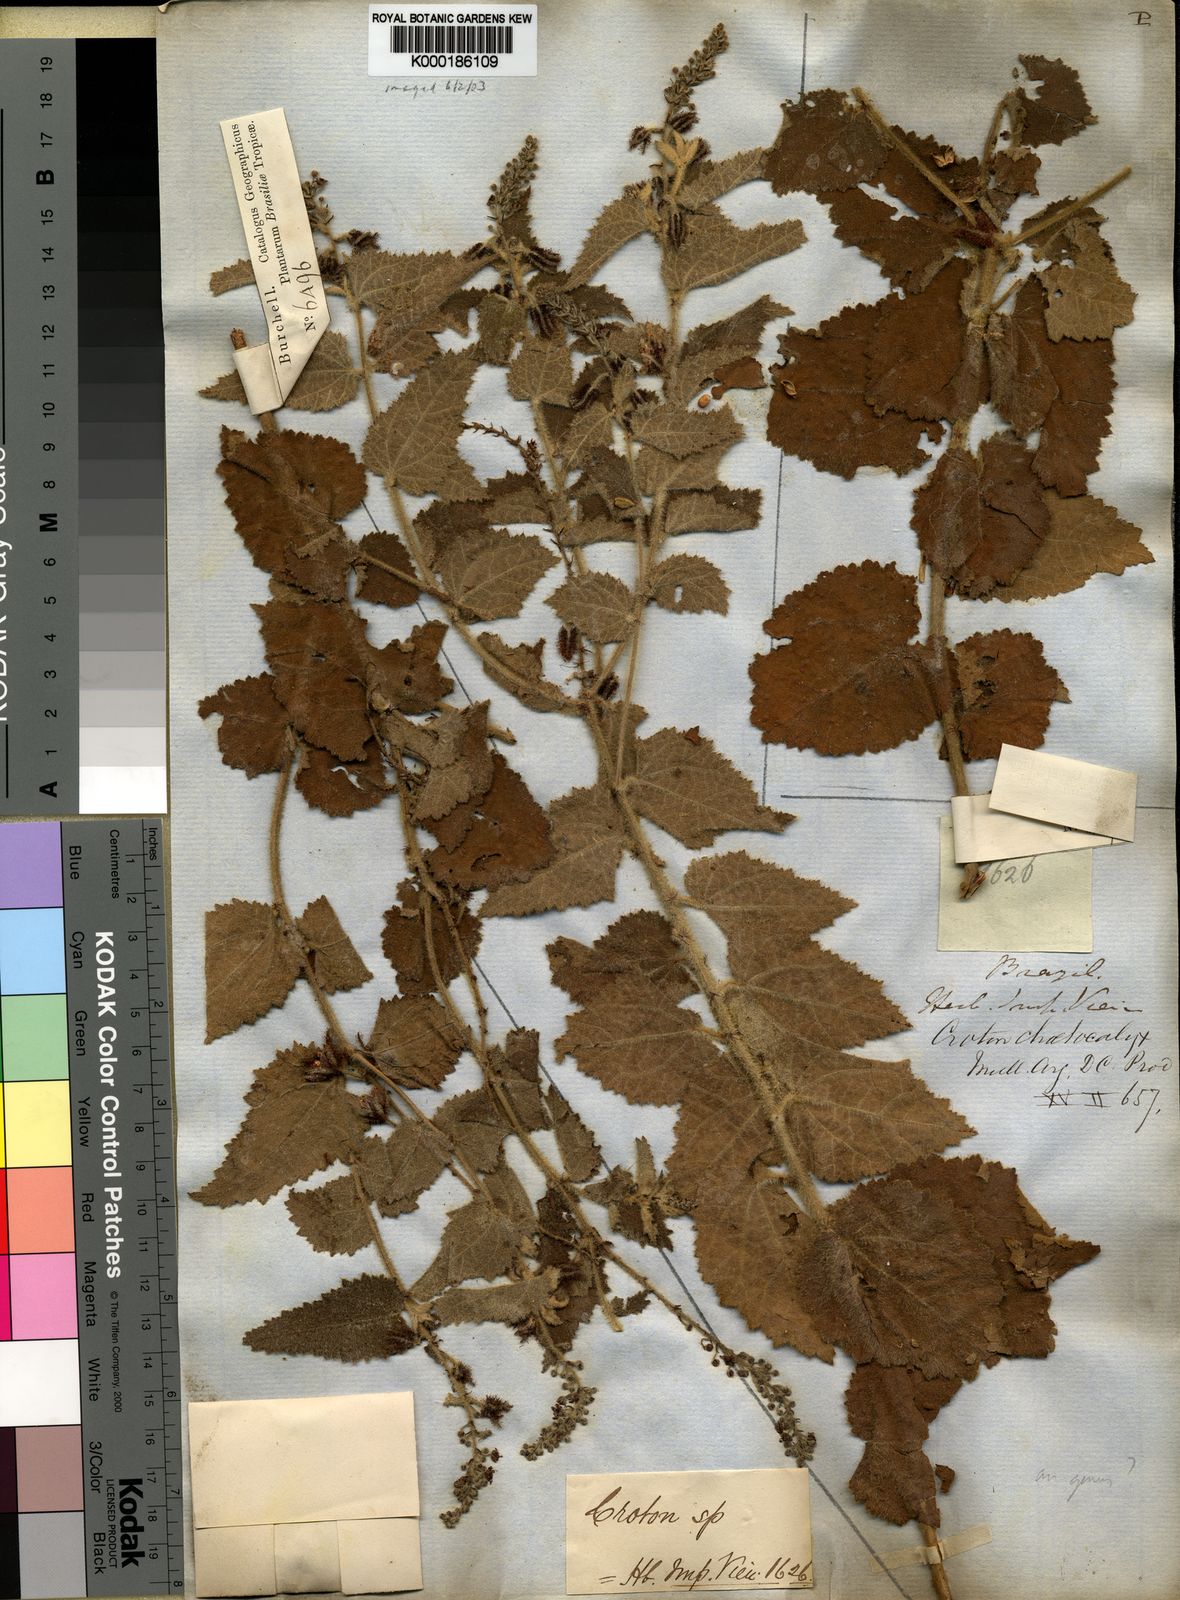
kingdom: Plantae
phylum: Tracheophyta
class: Magnoliopsida
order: Malpighiales
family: Euphorbiaceae
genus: Croton
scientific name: Croton
